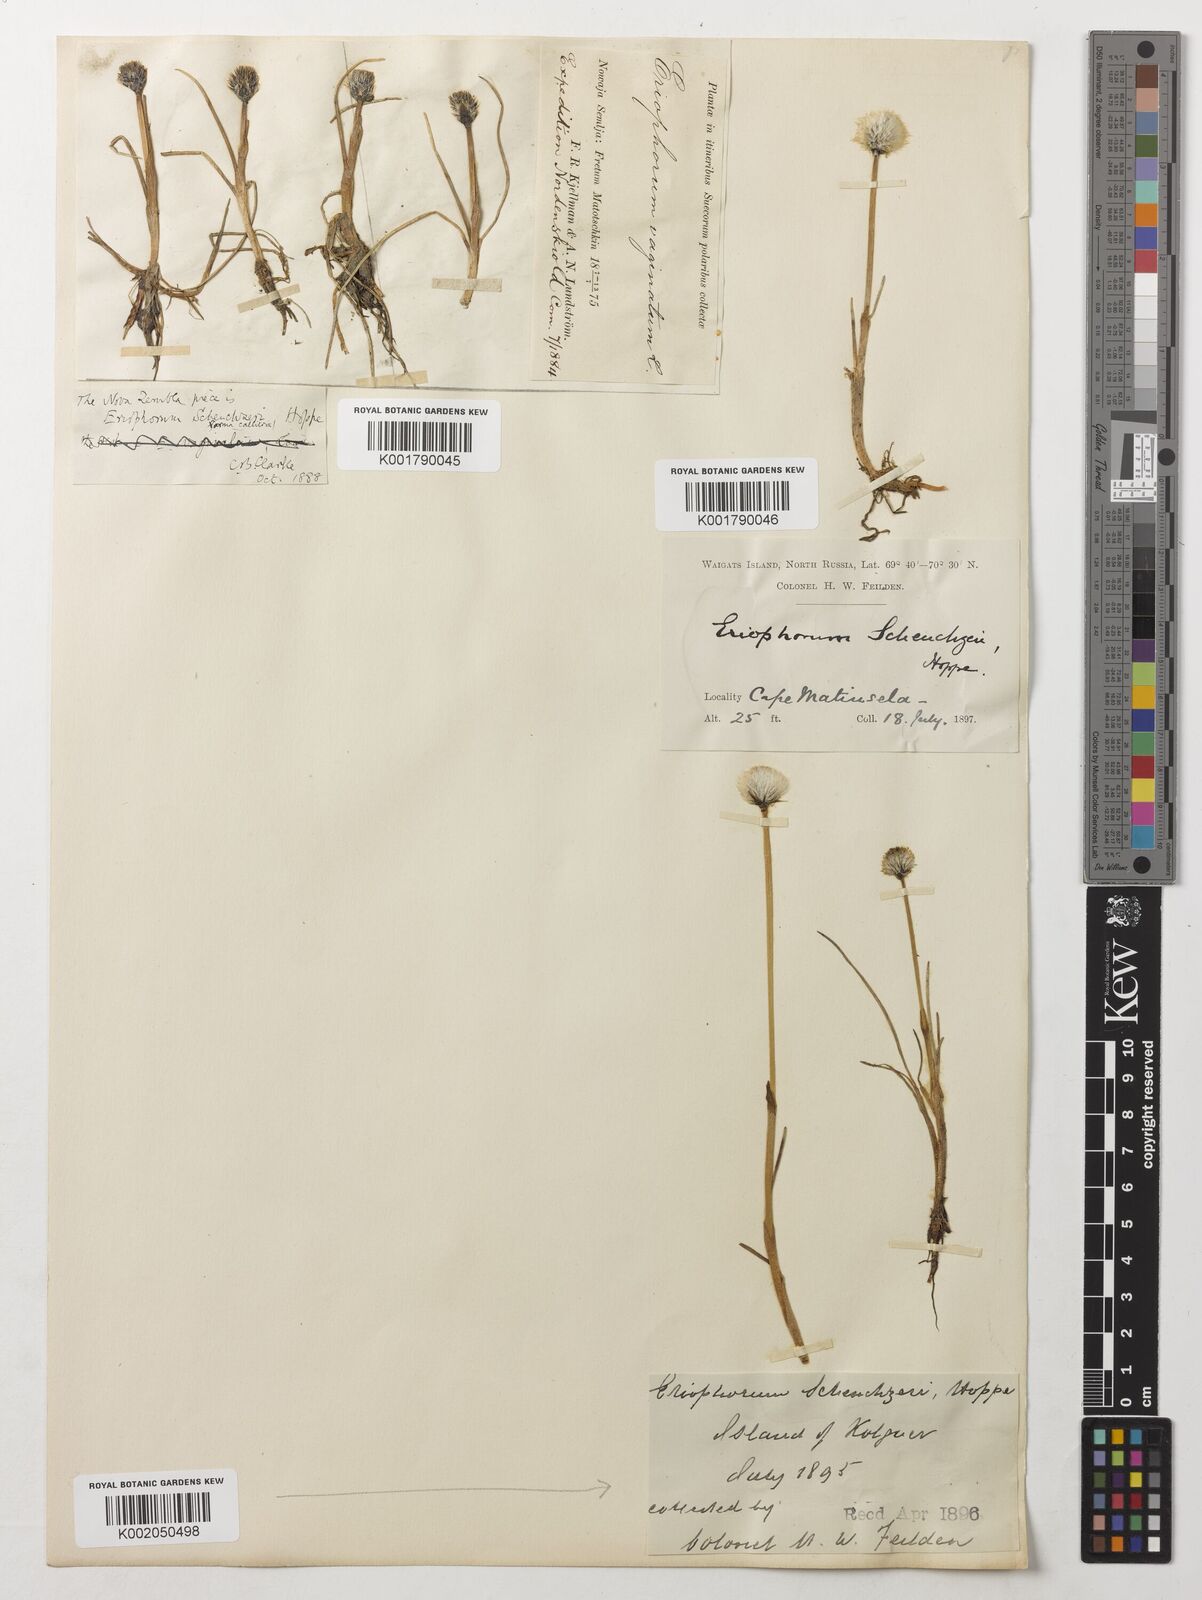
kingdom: Plantae
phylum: Tracheophyta
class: Liliopsida
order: Poales
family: Cyperaceae
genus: Eriophorum
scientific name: Eriophorum scheuchzeri
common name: Scheuchzer's cottongrass
